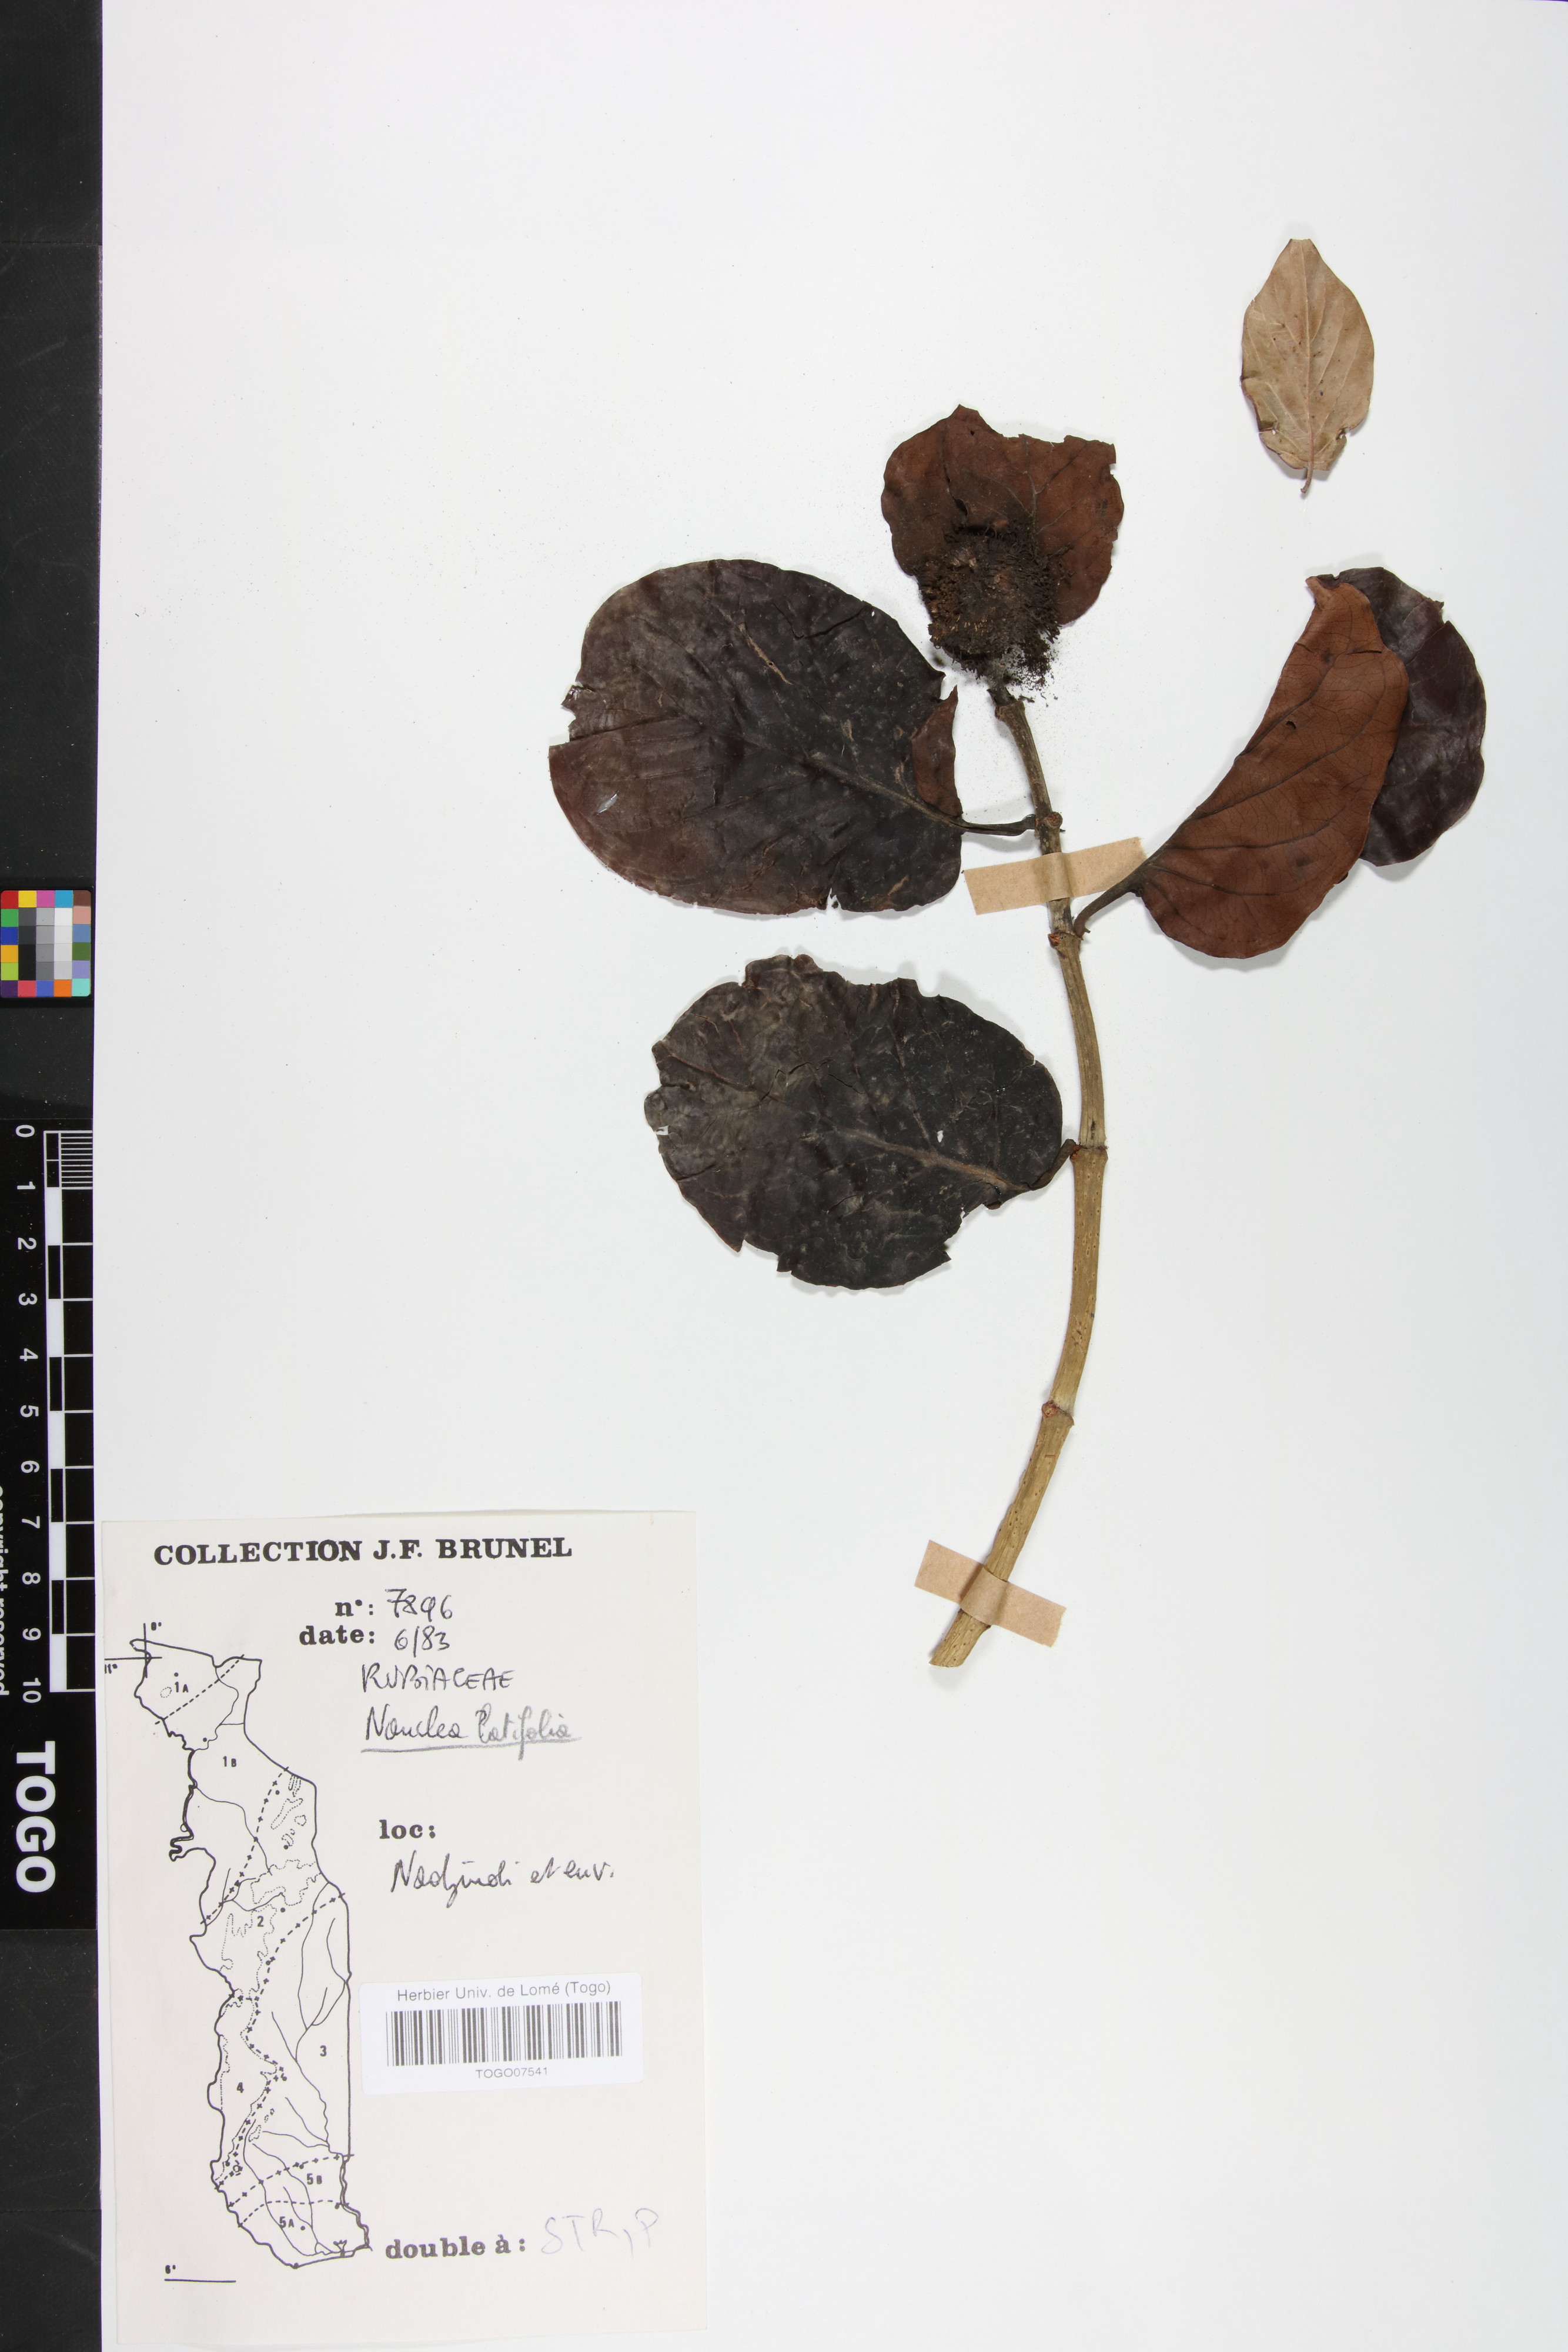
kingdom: Plantae
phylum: Tracheophyta
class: Magnoliopsida
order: Gentianales
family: Rubiaceae
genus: Nauclea
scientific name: Nauclea latifolia
